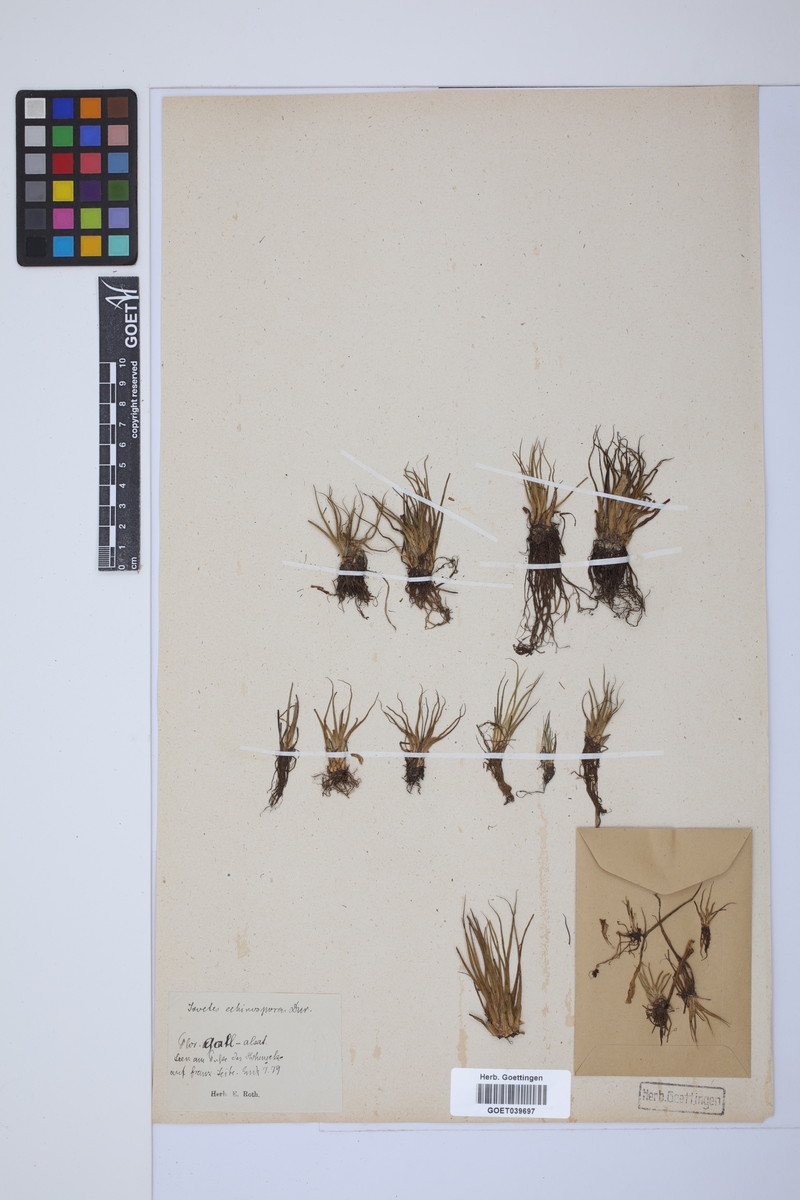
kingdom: Plantae
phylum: Tracheophyta
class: Lycopodiopsida
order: Isoetales
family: Isoetaceae
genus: Isoetes
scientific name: Isoetes echinospora
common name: Spring quillwort
